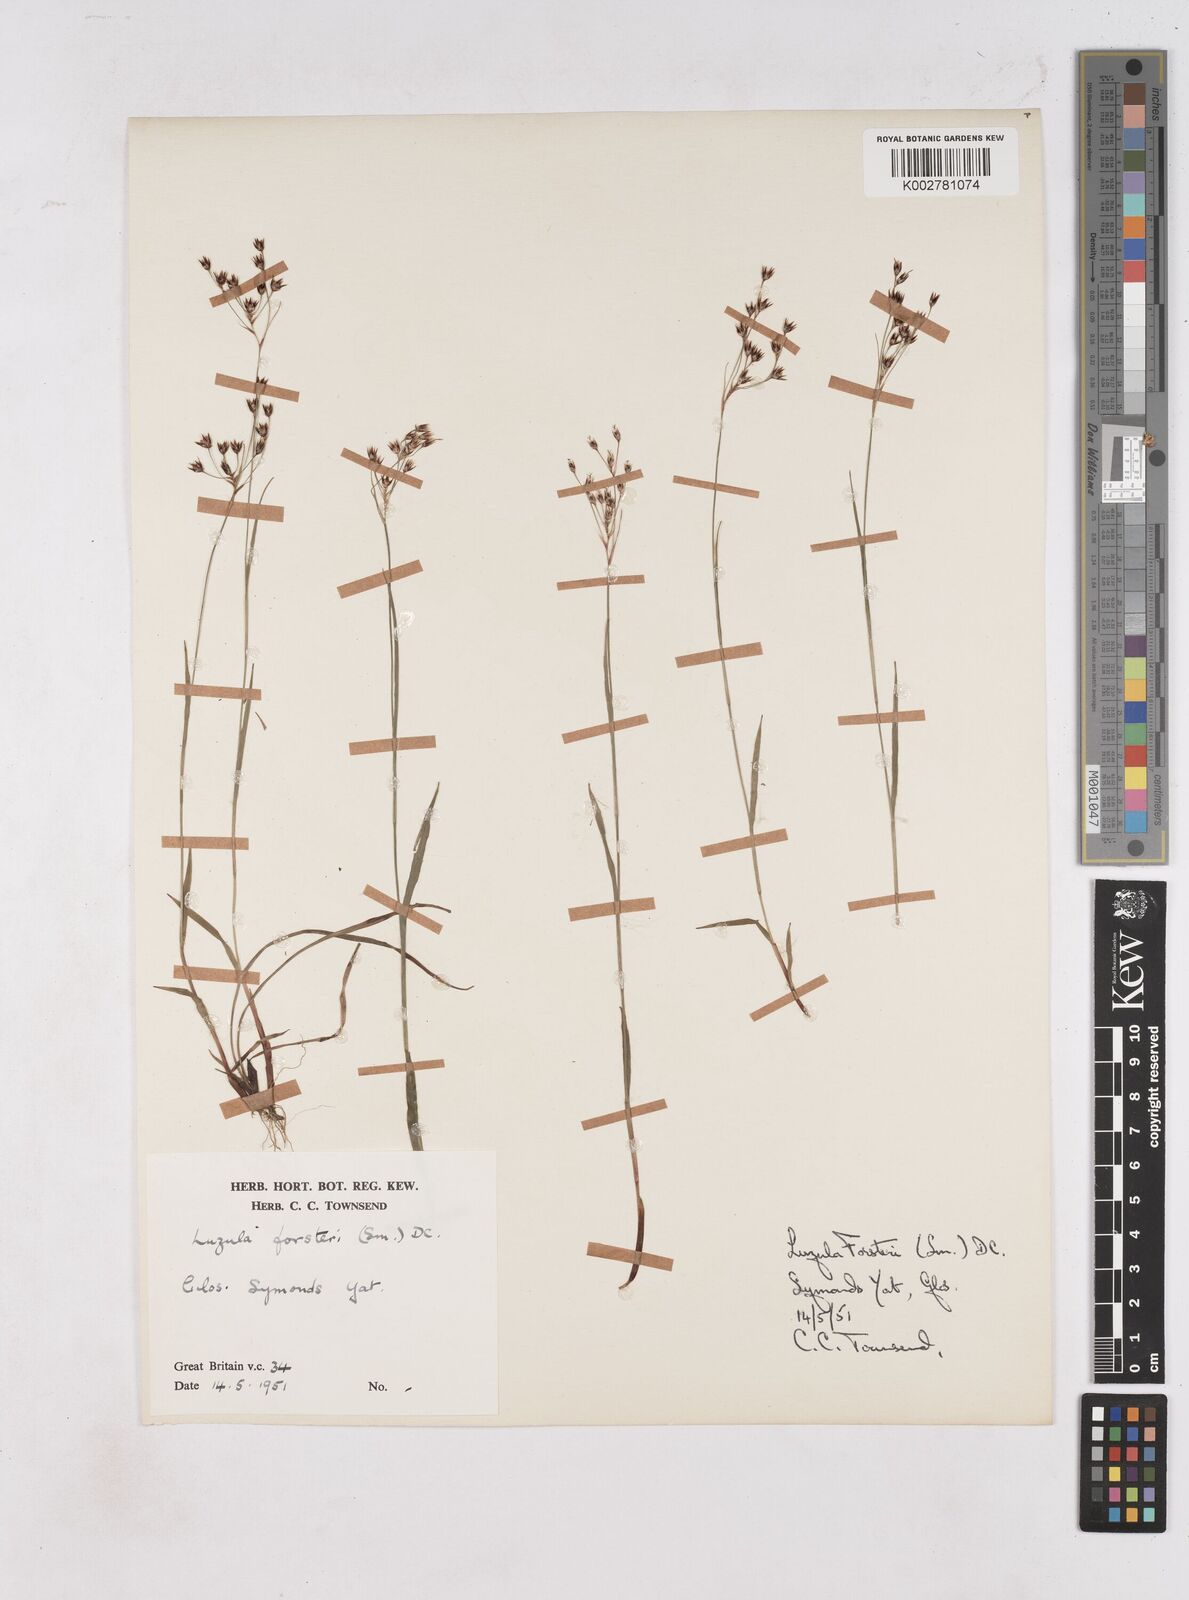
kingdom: Plantae
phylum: Tracheophyta
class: Liliopsida
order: Poales
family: Juncaceae
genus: Luzula
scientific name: Luzula forsteri
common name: Southern wood-rush
